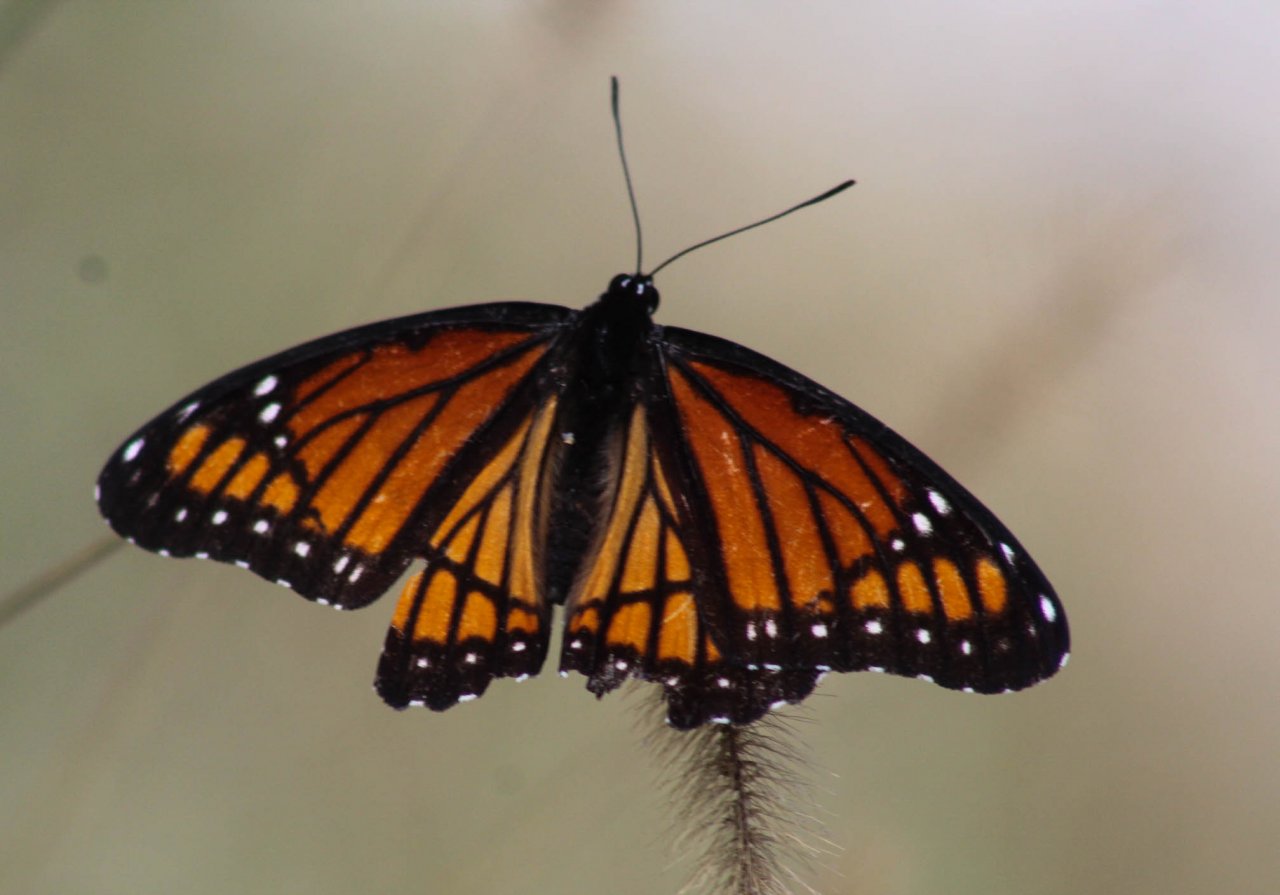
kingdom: Animalia
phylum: Arthropoda
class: Insecta
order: Lepidoptera
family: Nymphalidae
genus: Limenitis
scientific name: Limenitis archippus
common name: Viceroy
